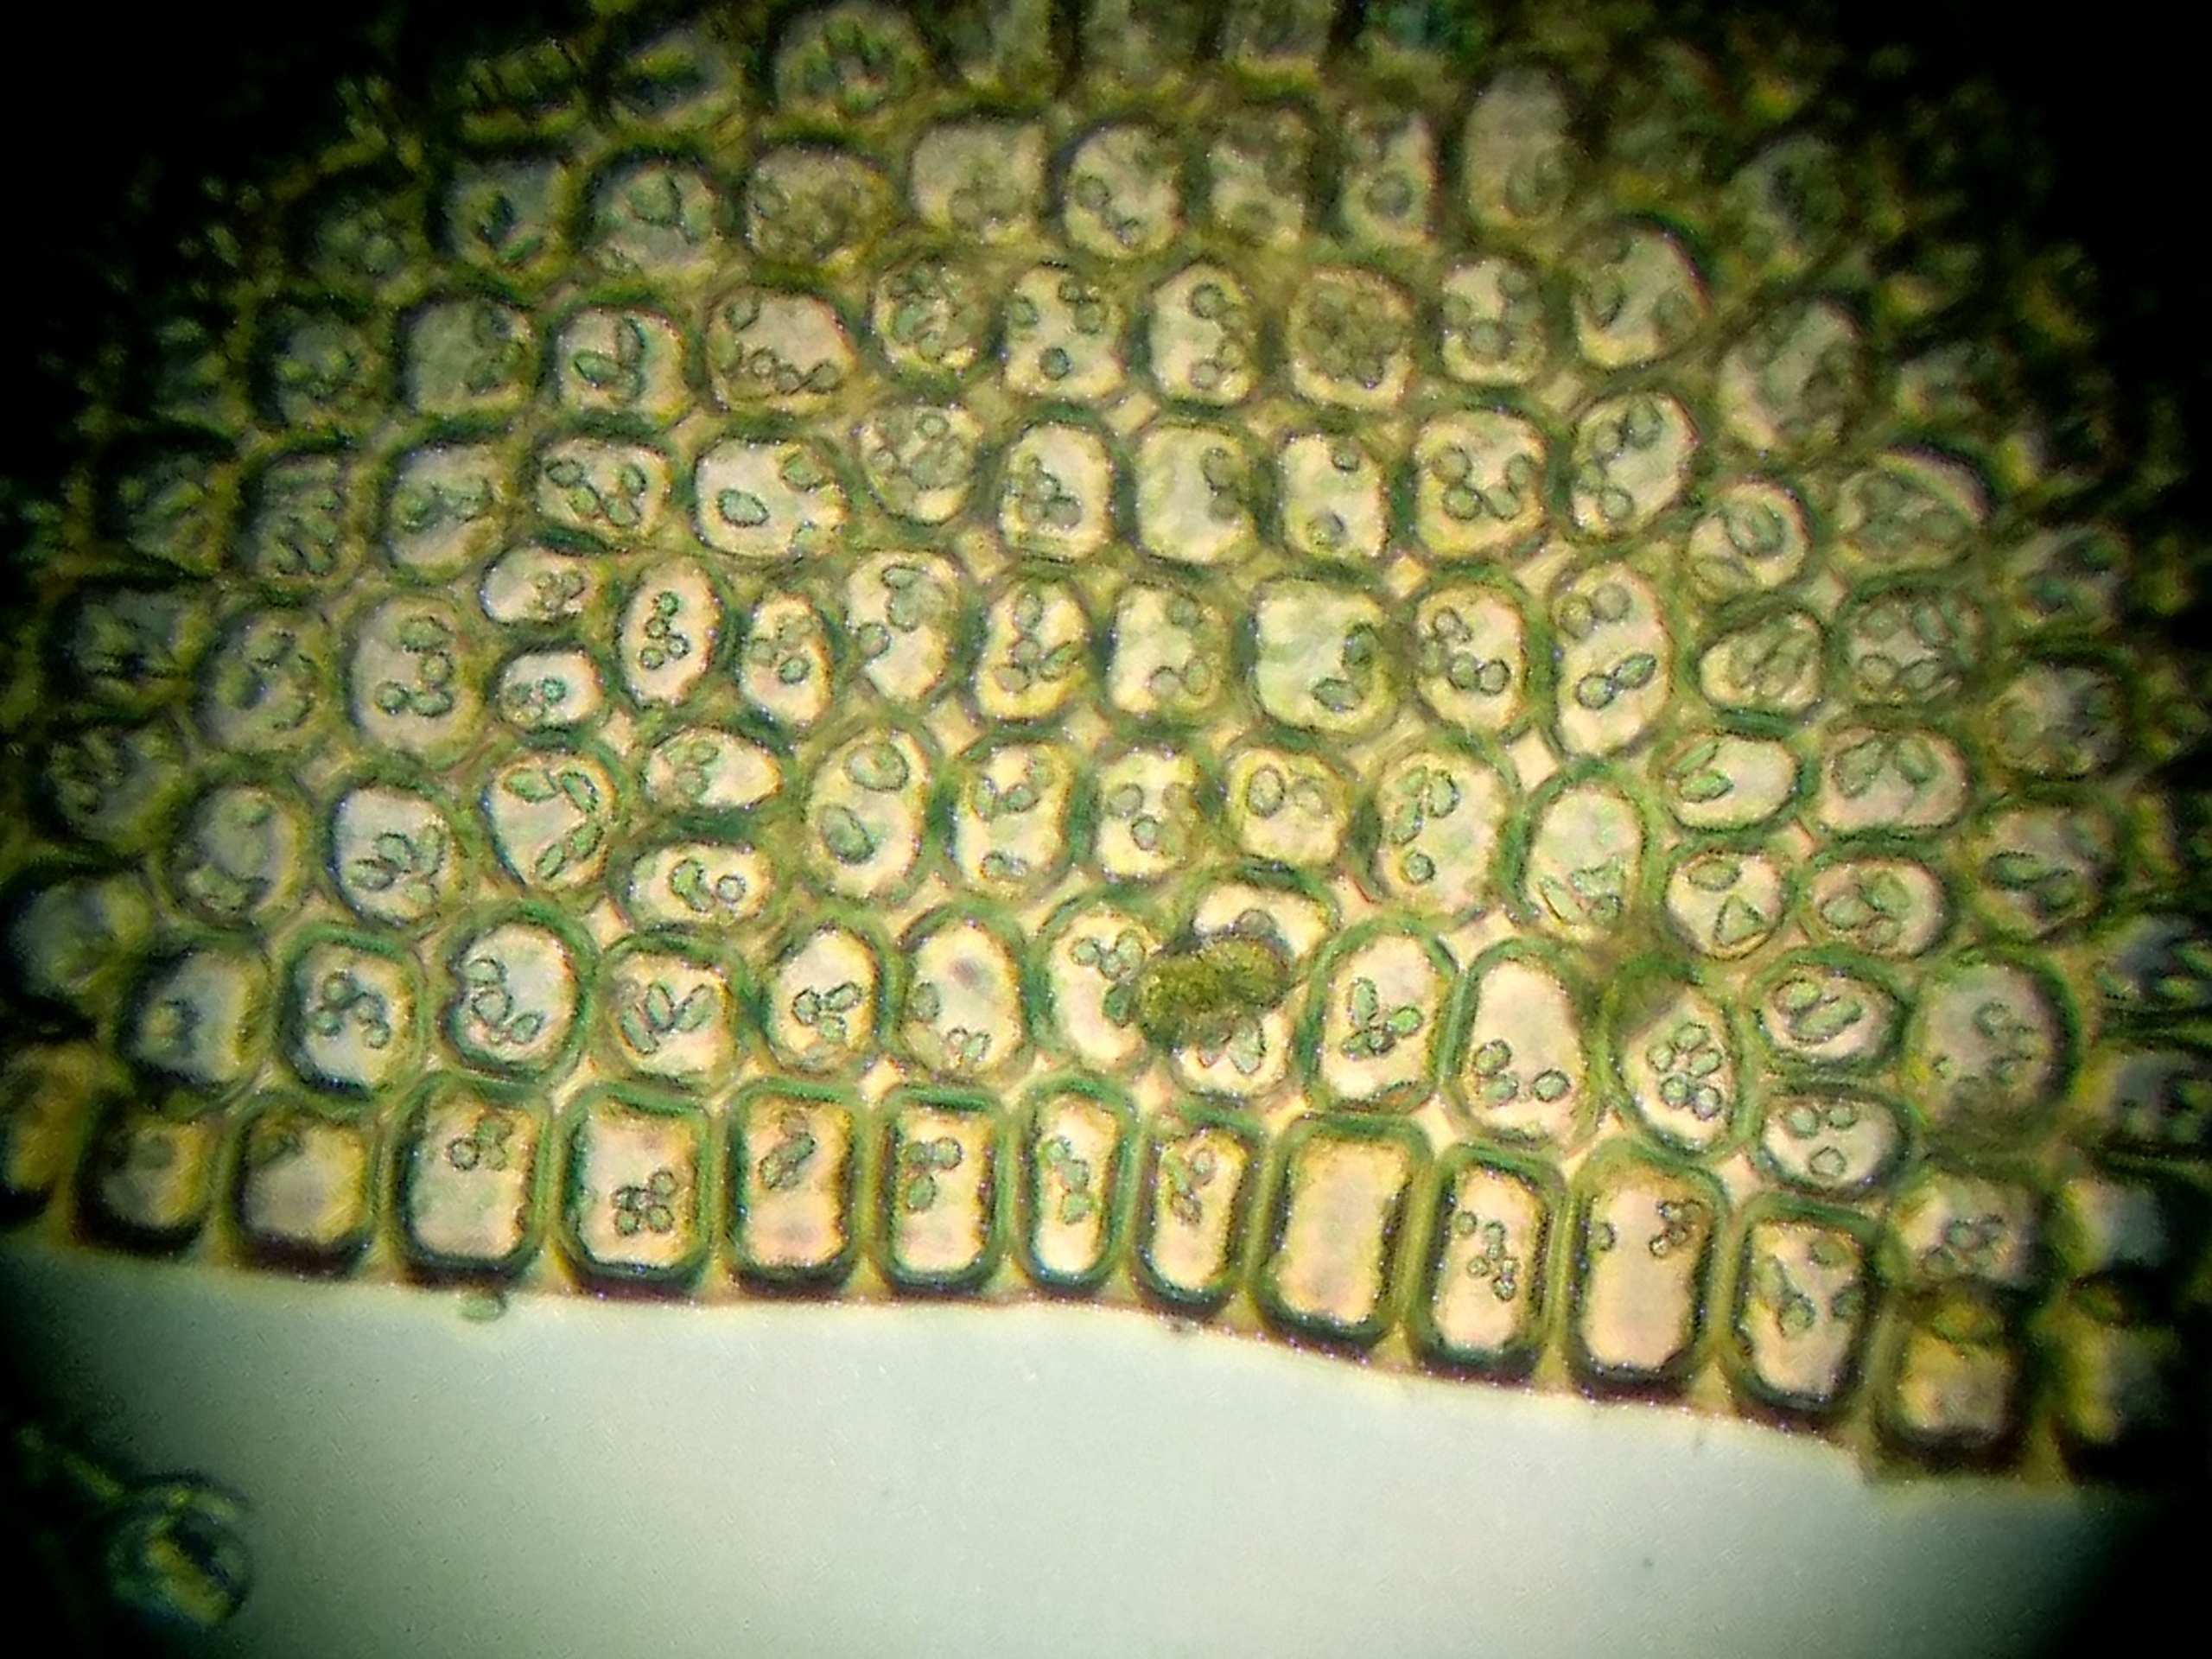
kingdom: Plantae
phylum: Marchantiophyta
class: Jungermanniopsida
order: Jungermanniales
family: Cephaloziaceae
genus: Odontoschisma
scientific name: Odontoschisma sphagni
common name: Almindelig flagelmos
